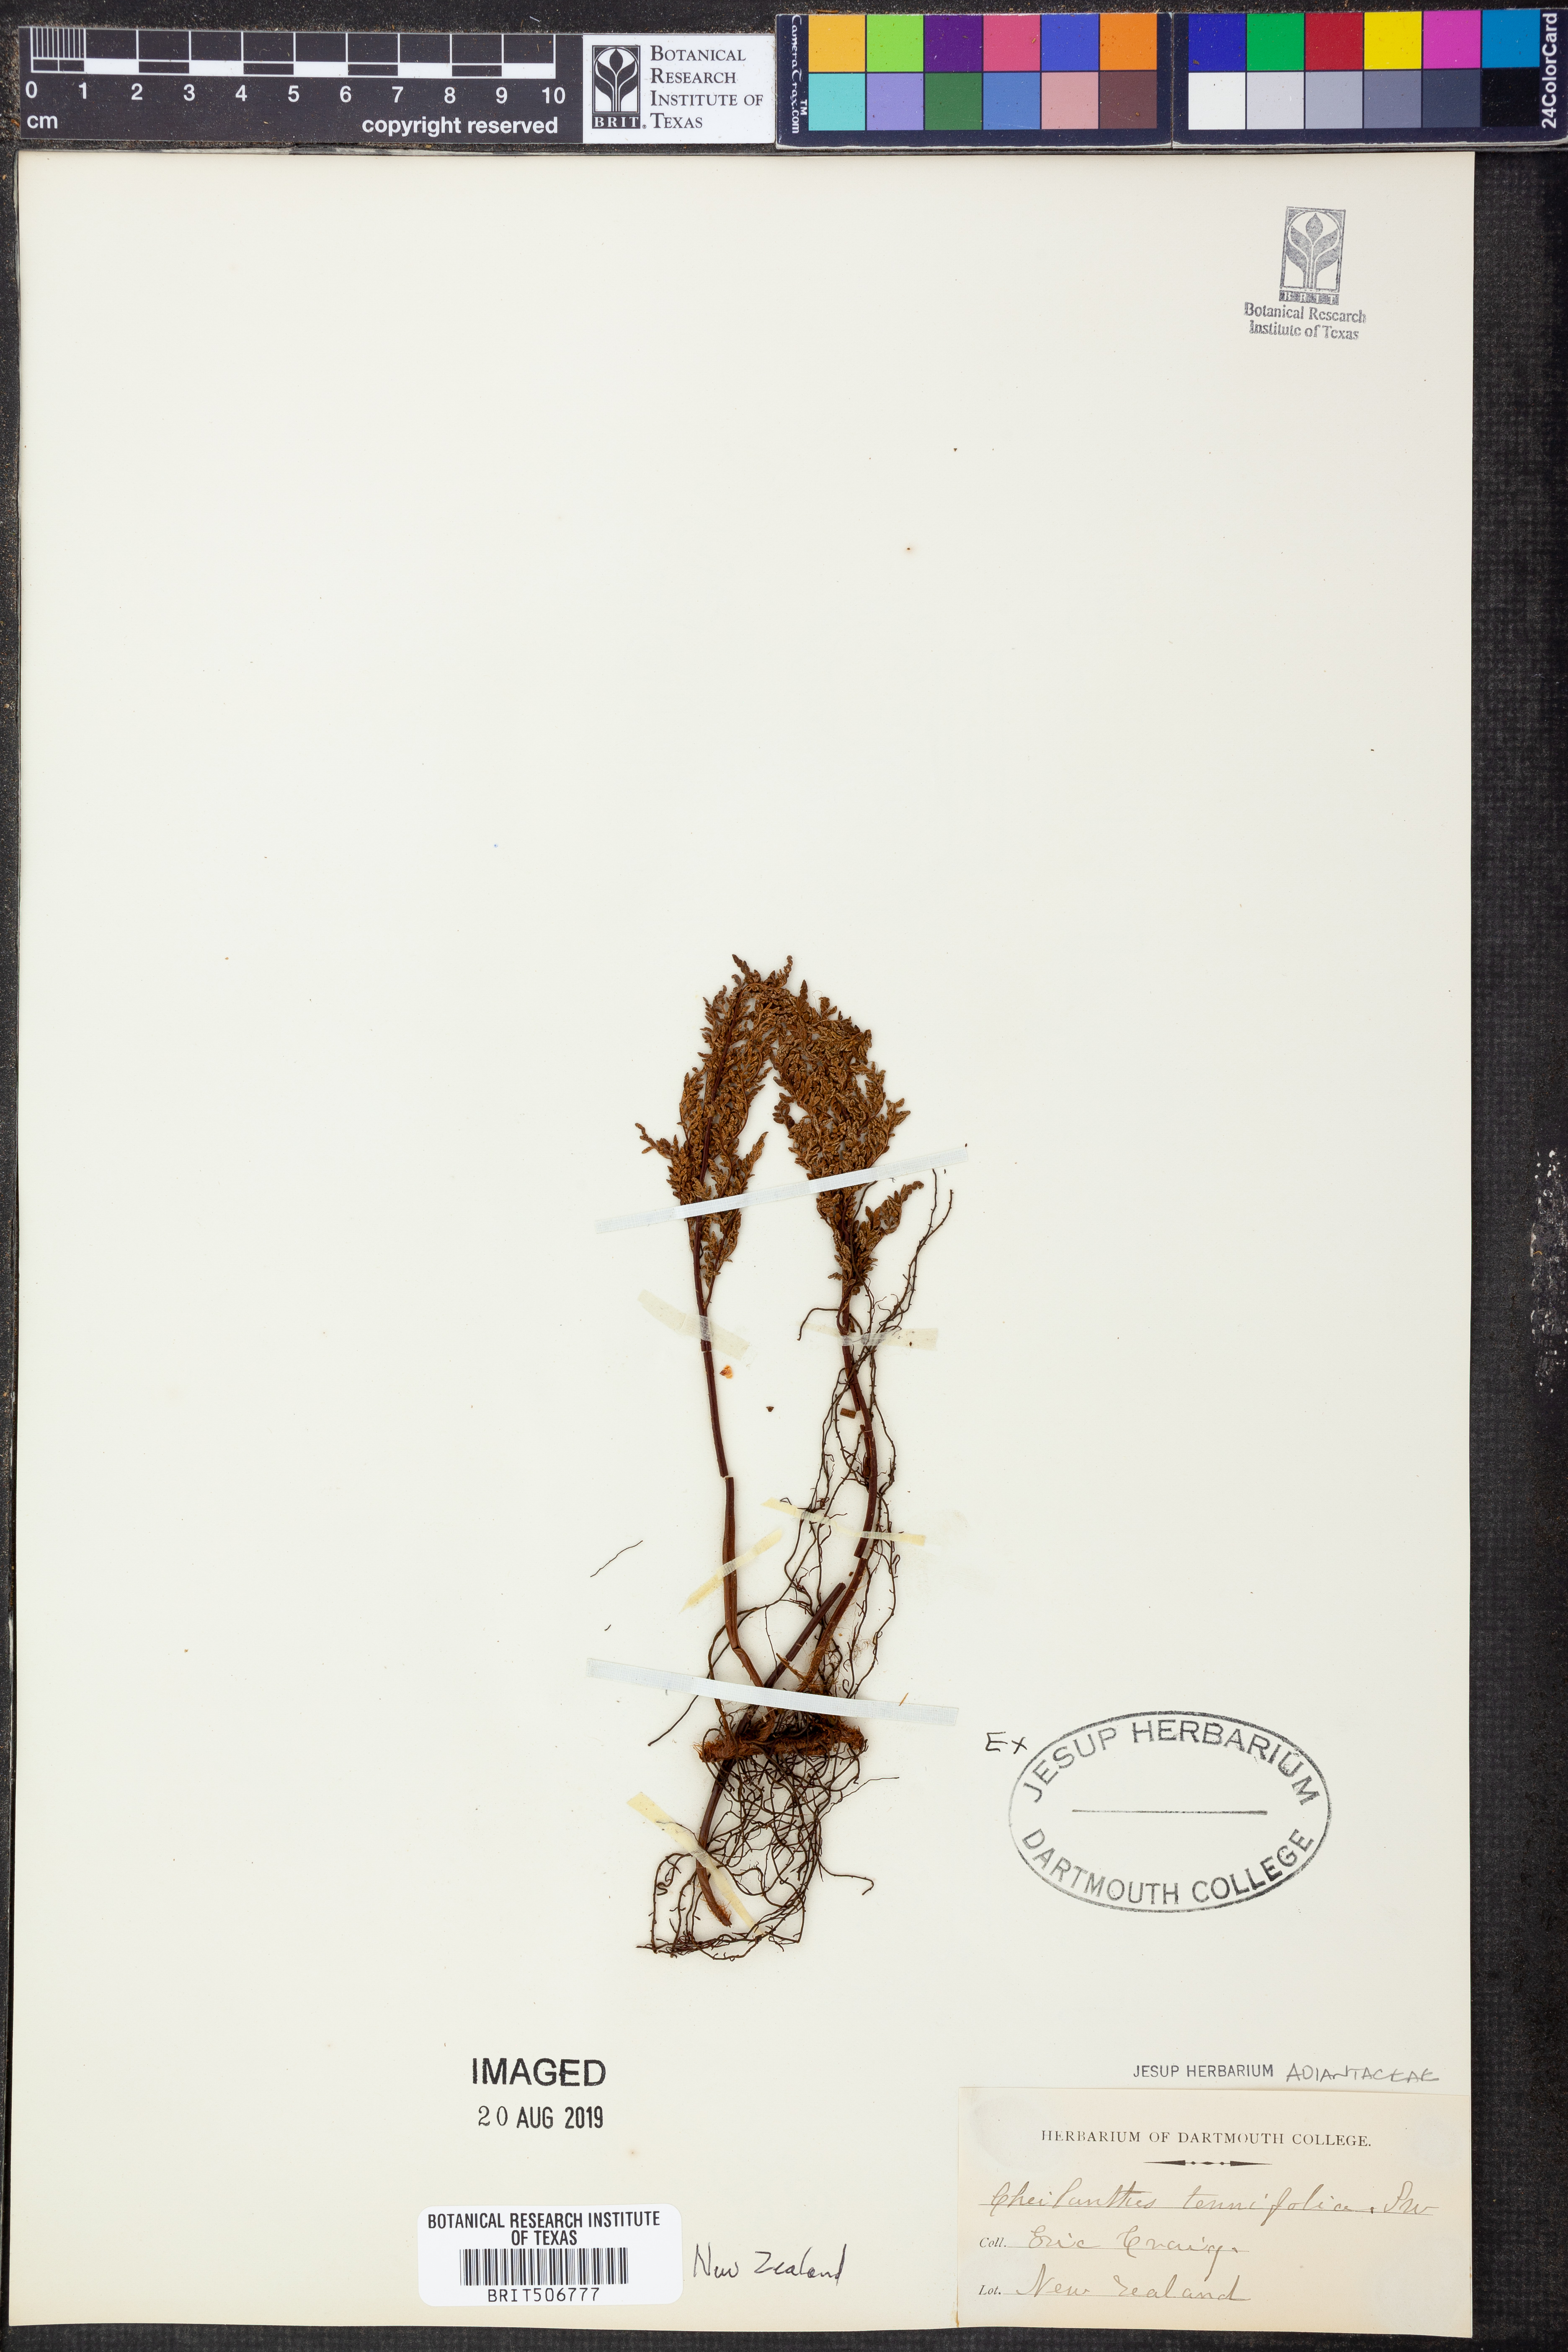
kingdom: Plantae
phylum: Tracheophyta
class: Polypodiopsida
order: Polypodiales
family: Pteridaceae
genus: Cheilanthes
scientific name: Cheilanthes tenuifolia
